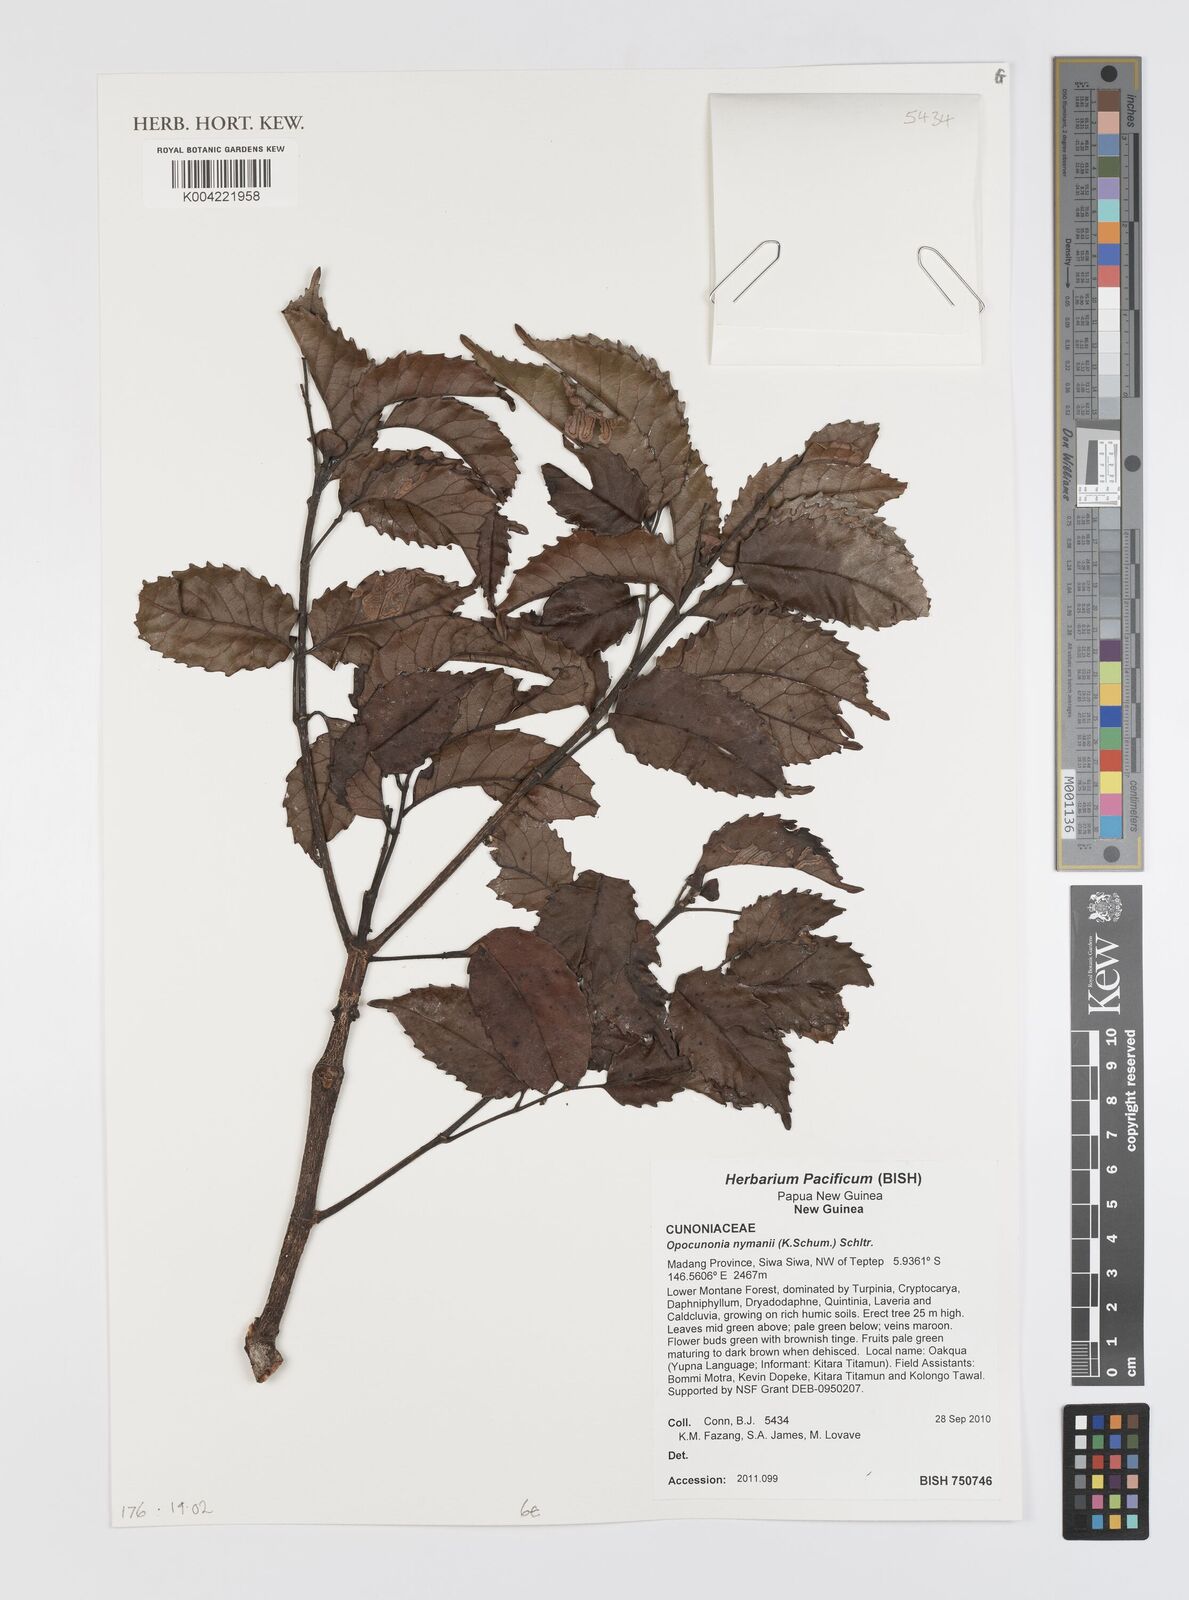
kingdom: Plantae
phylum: Tracheophyta
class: Magnoliopsida
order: Oxalidales
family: Cunoniaceae
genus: Opocunonia
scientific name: Opocunonia nymanii
